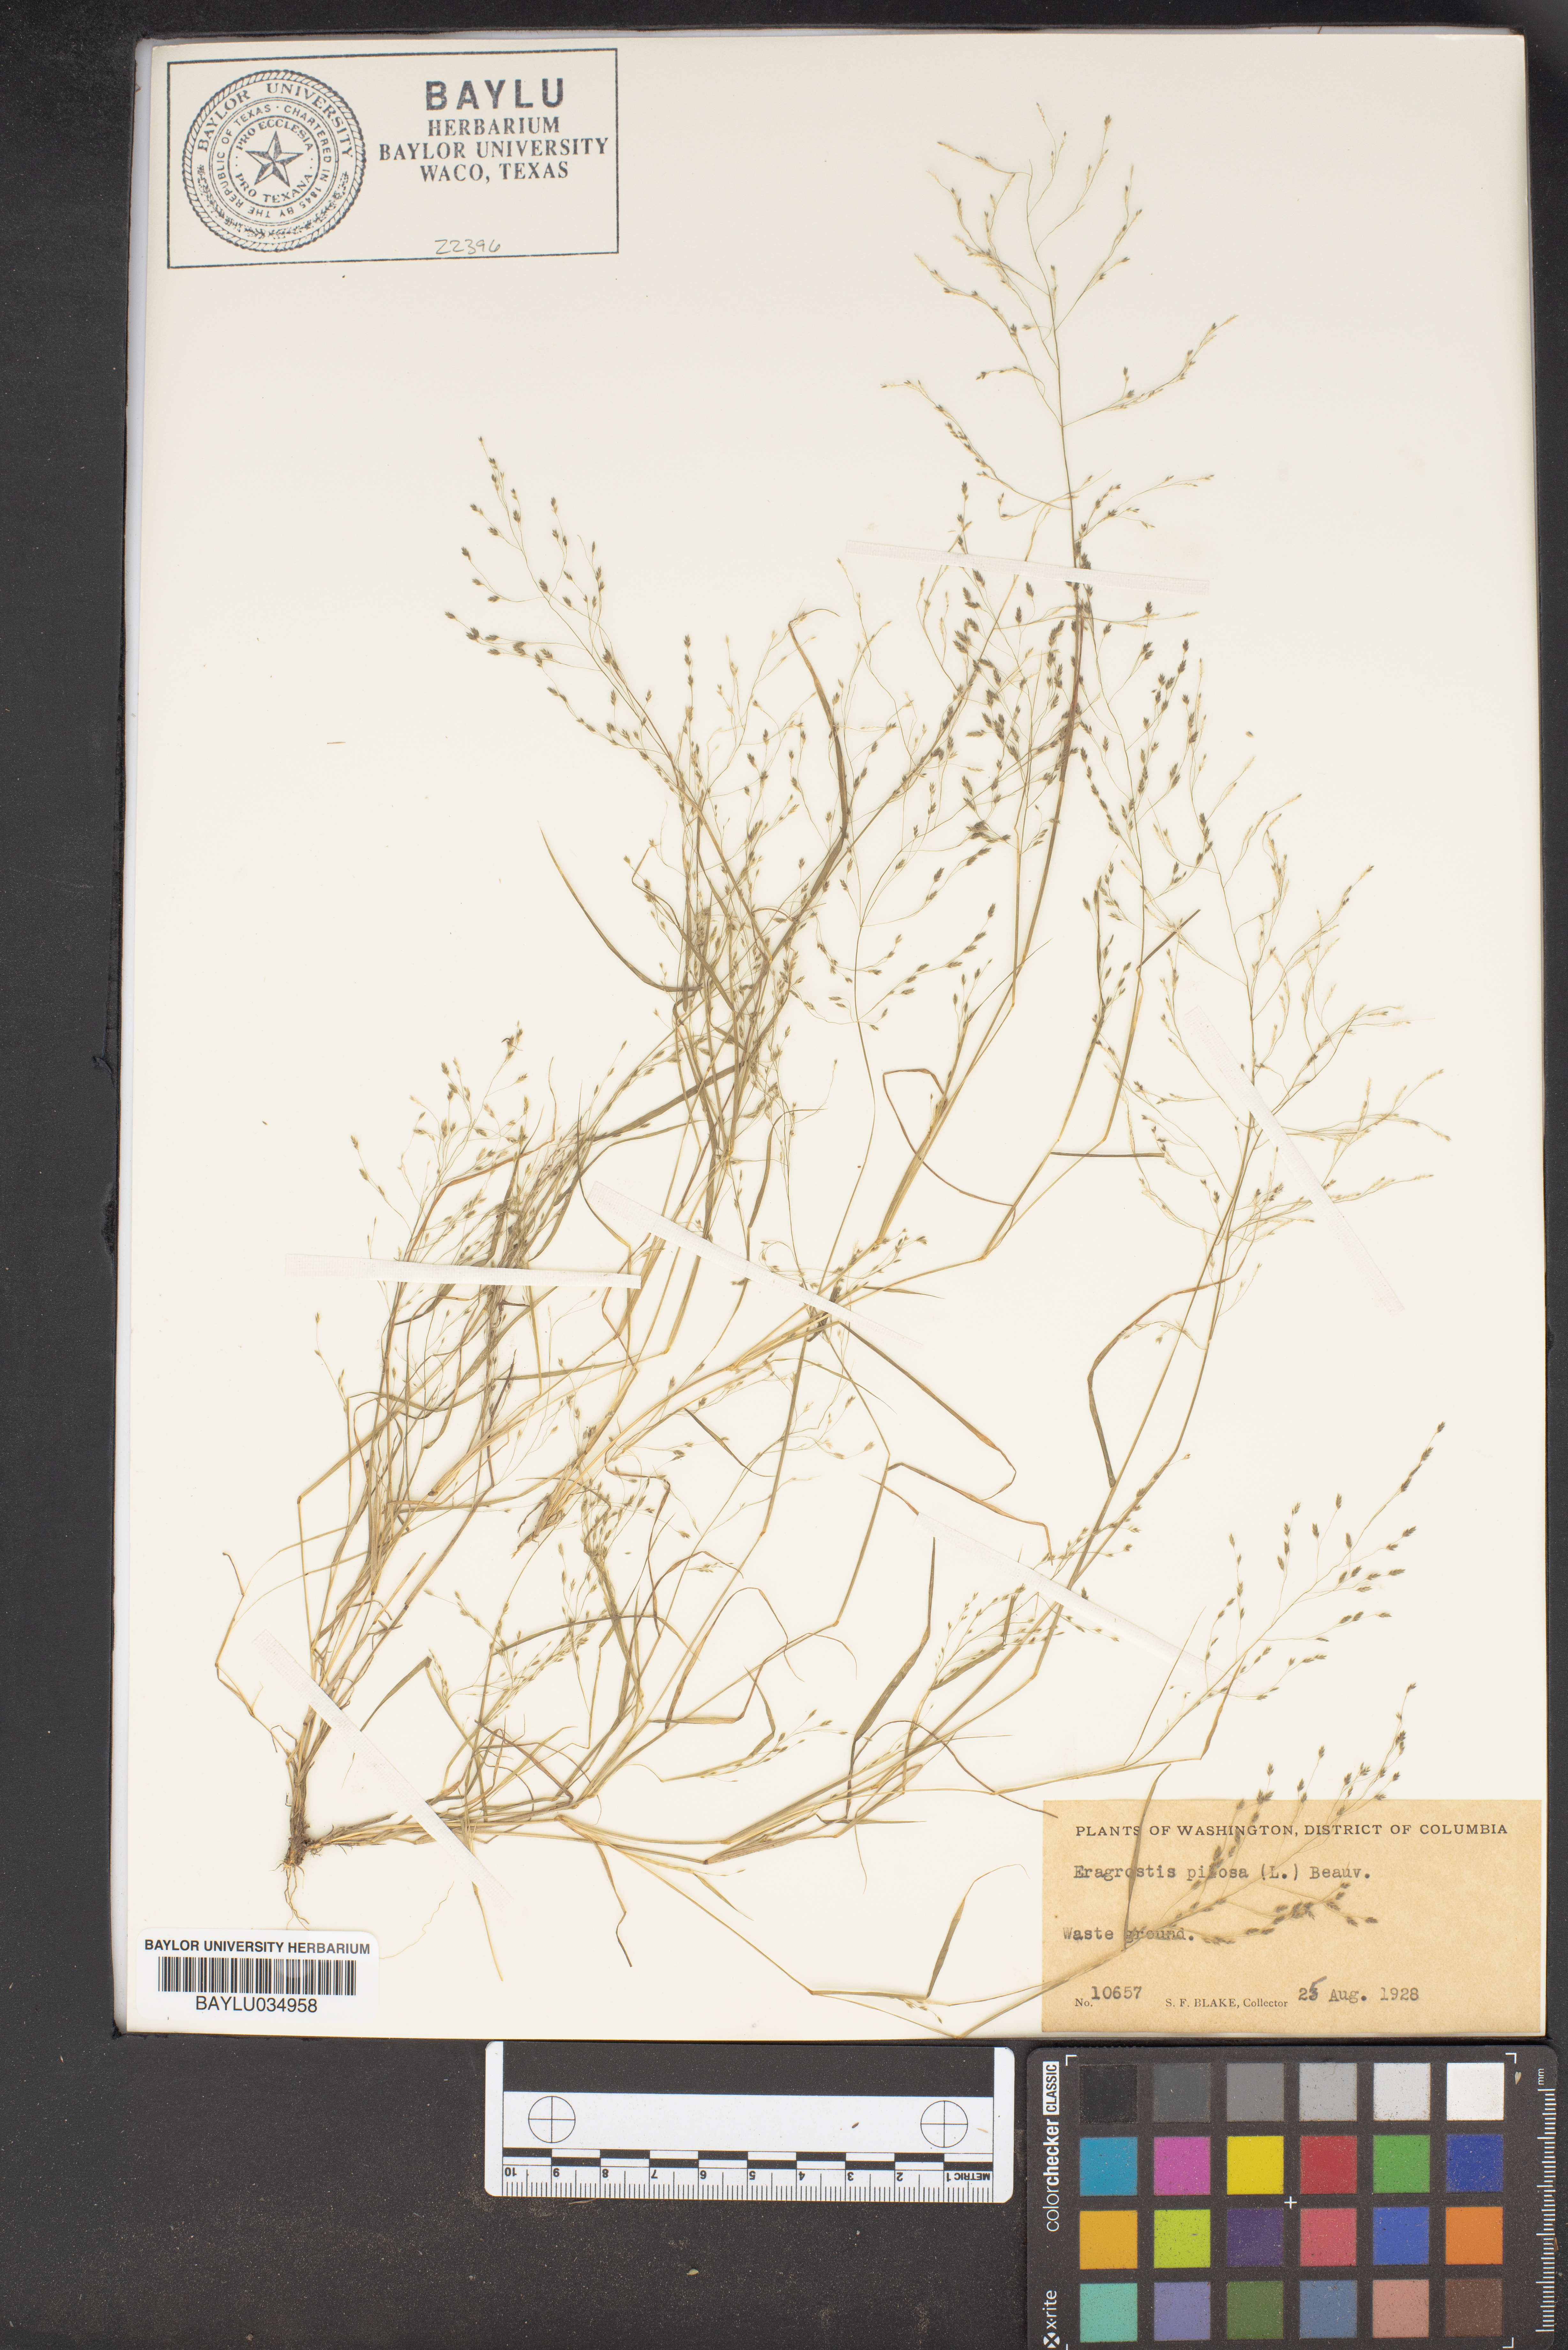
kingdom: Plantae
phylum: Tracheophyta
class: Liliopsida
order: Poales
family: Poaceae
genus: Eragrostis
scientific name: Eragrostis pilosa
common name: Indian lovegrass
